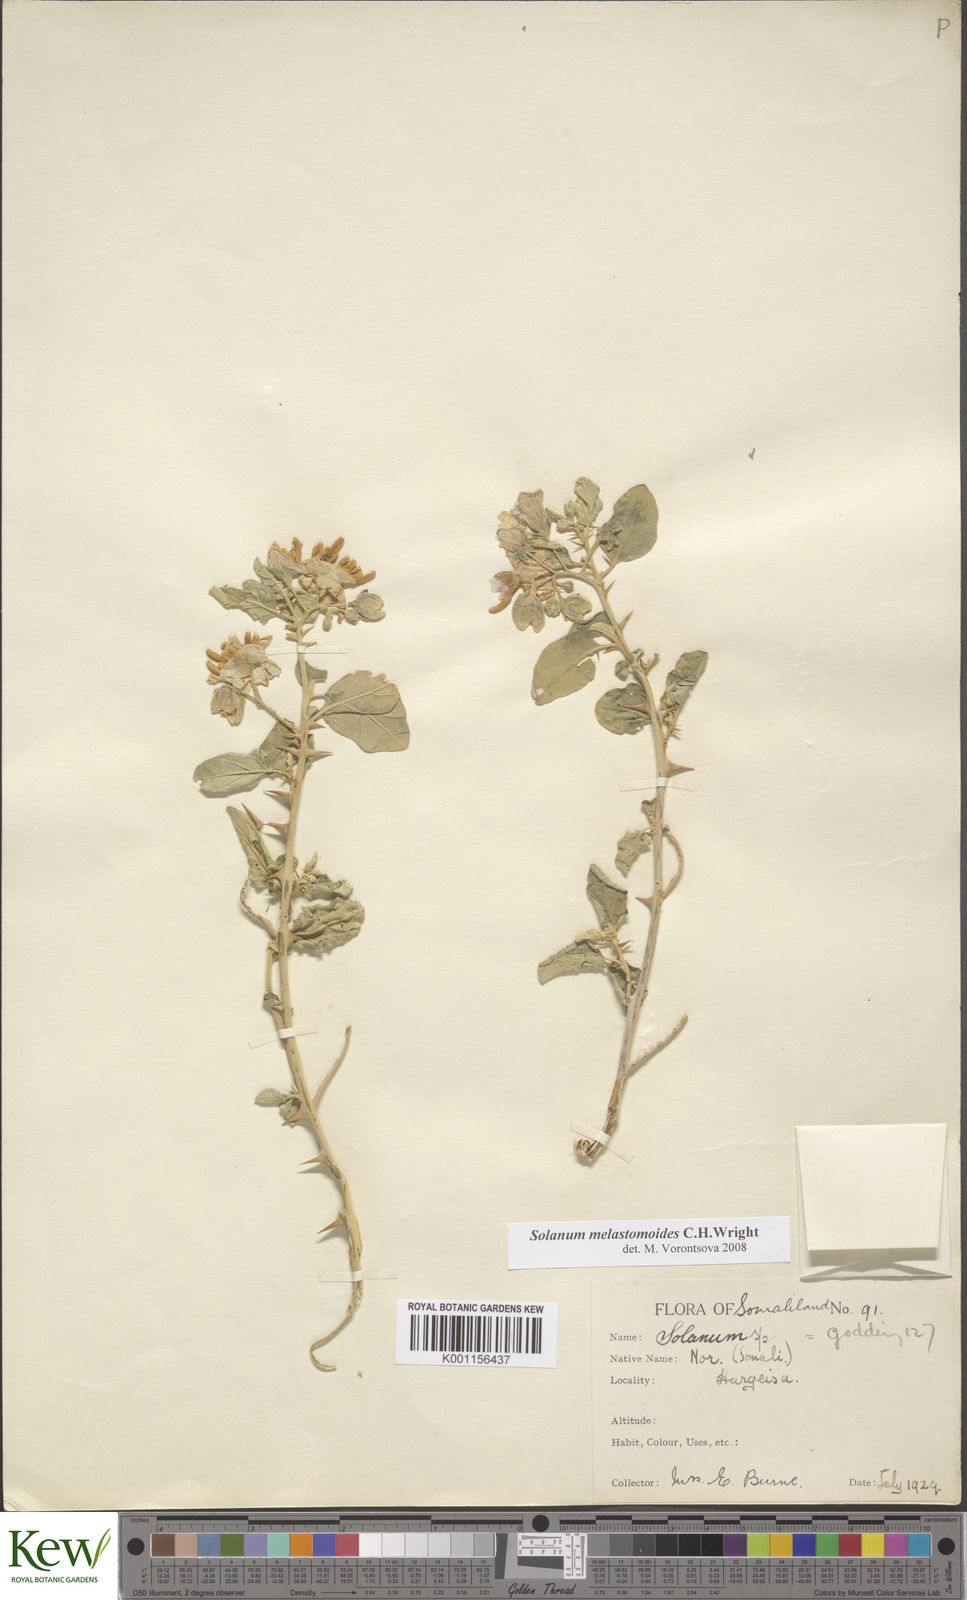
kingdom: Plantae
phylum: Tracheophyta
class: Magnoliopsida
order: Solanales
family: Solanaceae
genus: Solanum
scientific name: Solanum melastomoides
